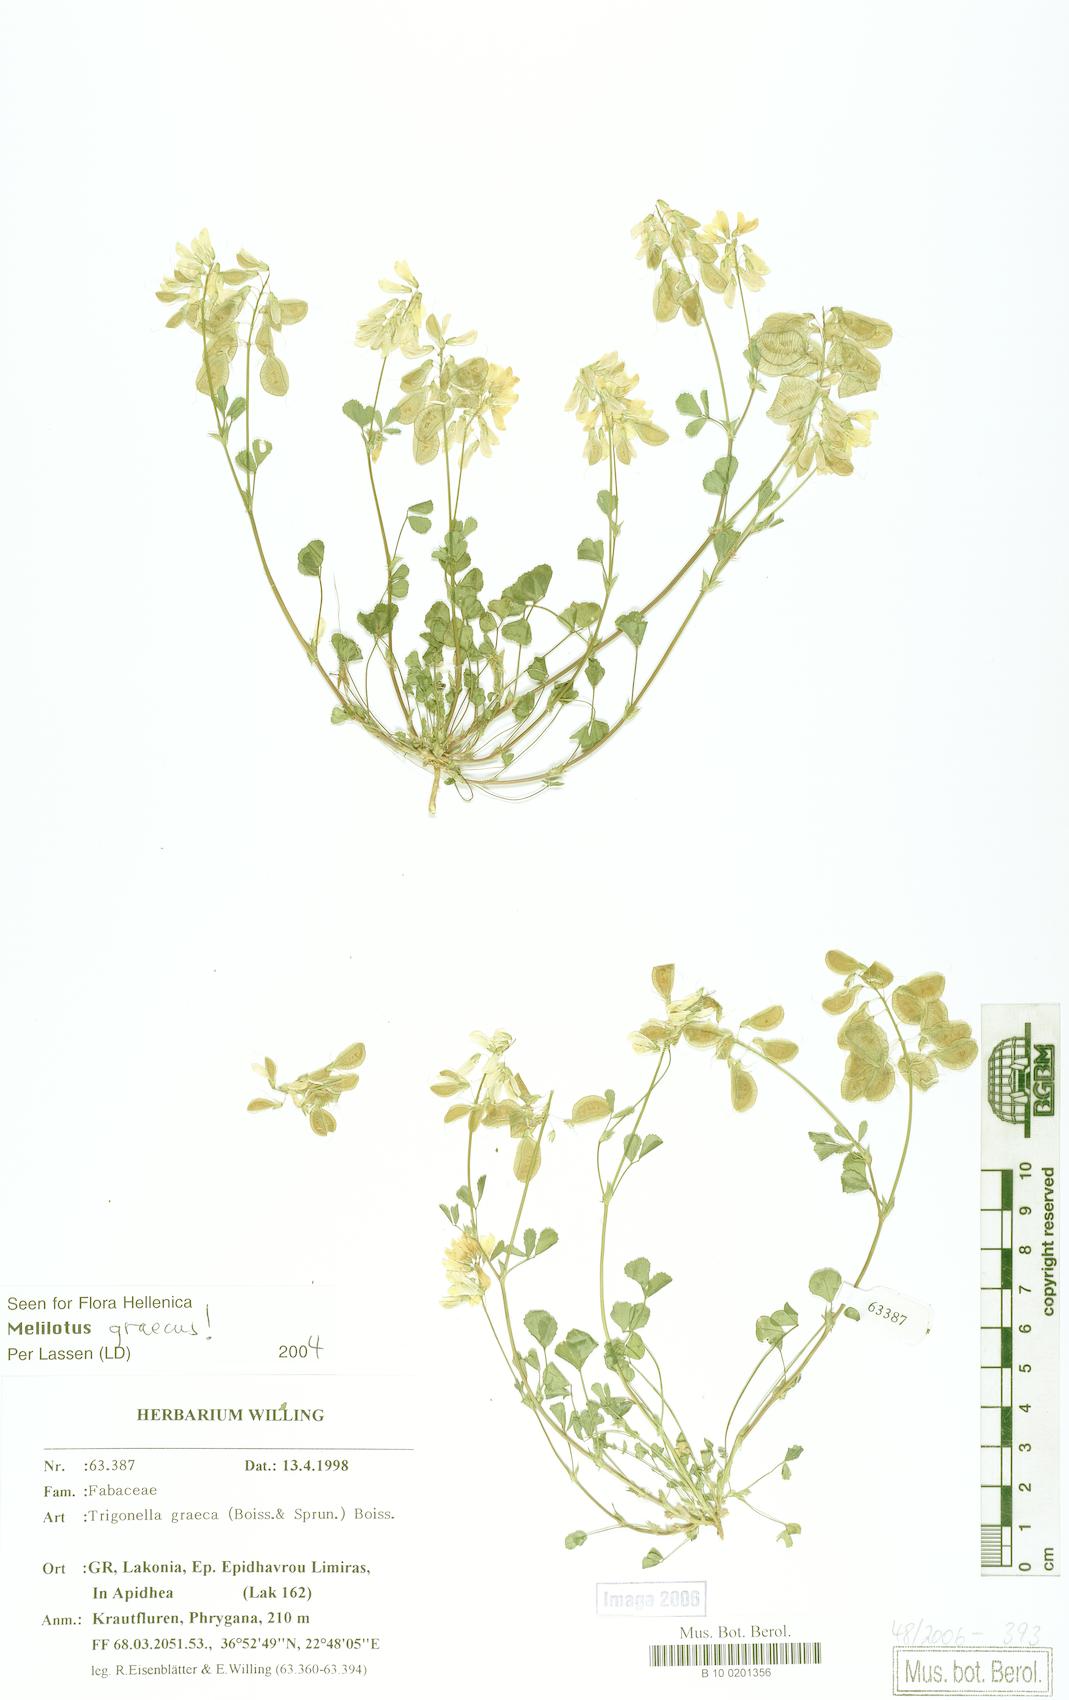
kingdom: Plantae
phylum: Tracheophyta
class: Magnoliopsida
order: Fabales
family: Fabaceae
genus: Trigonella
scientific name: Trigonella graeca
